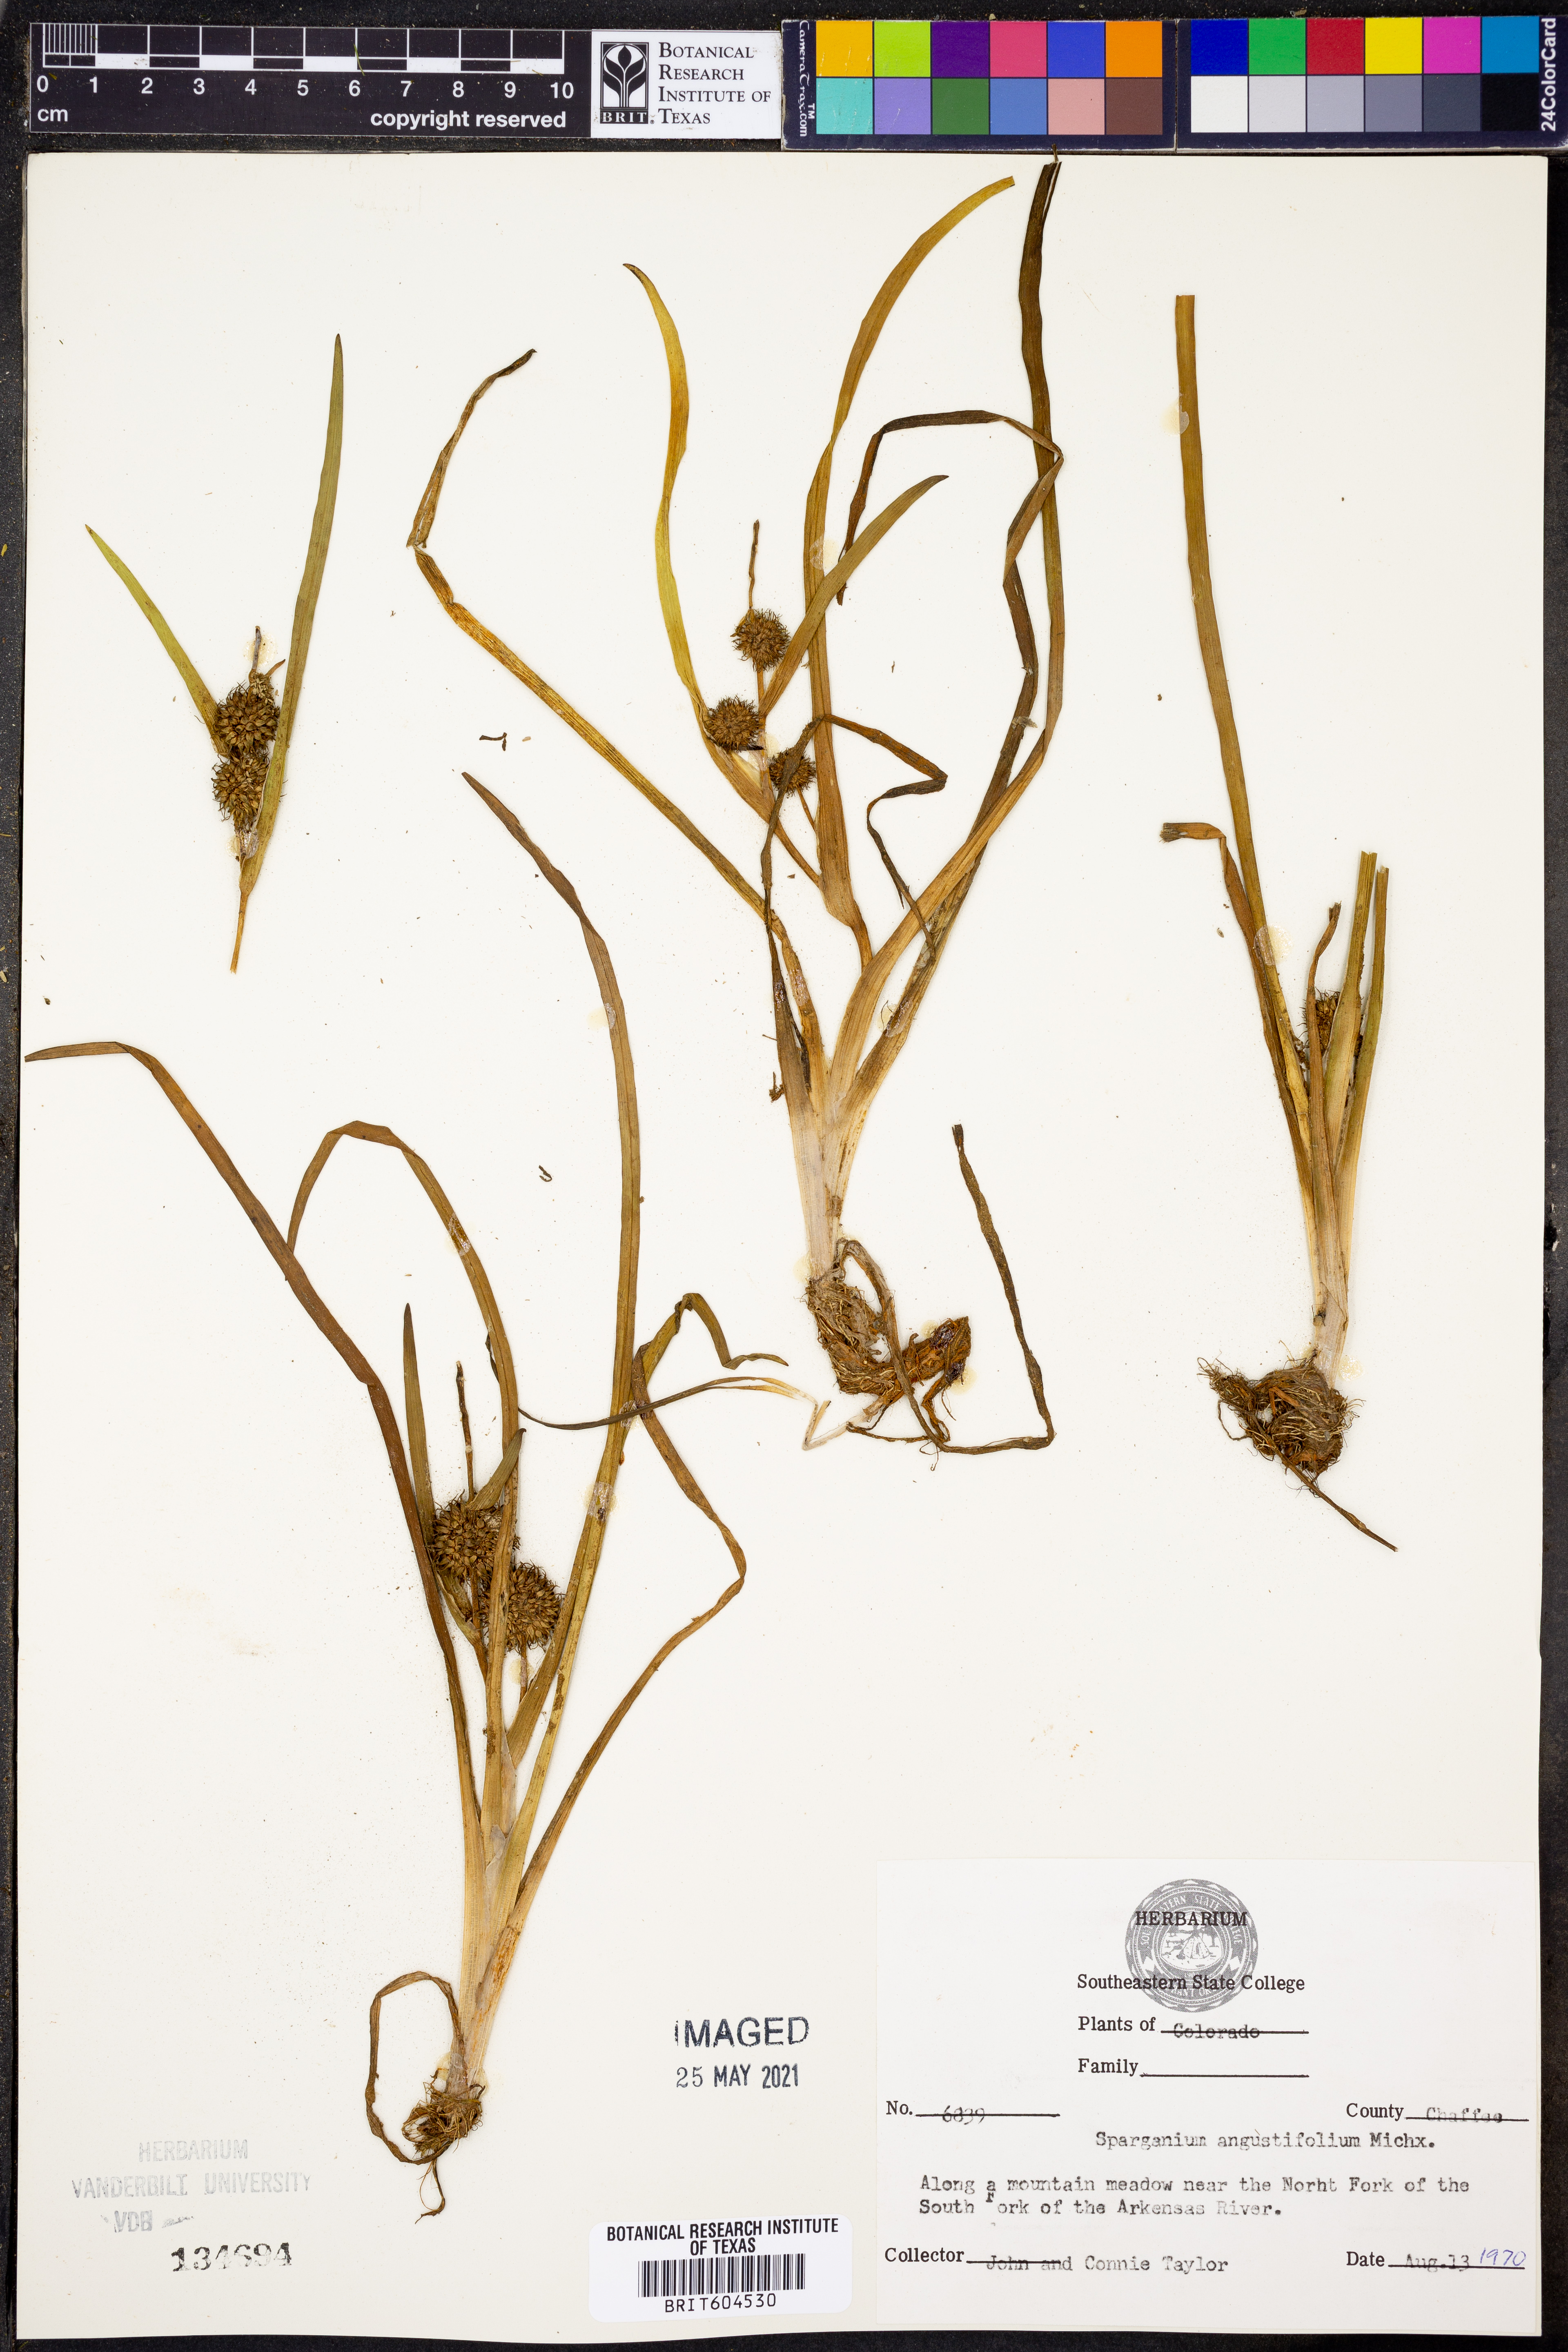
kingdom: Plantae
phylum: Tracheophyta
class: Liliopsida
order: Poales
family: Typhaceae
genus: Sparganium
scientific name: Sparganium angustifolium
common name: Floating bur-reed
